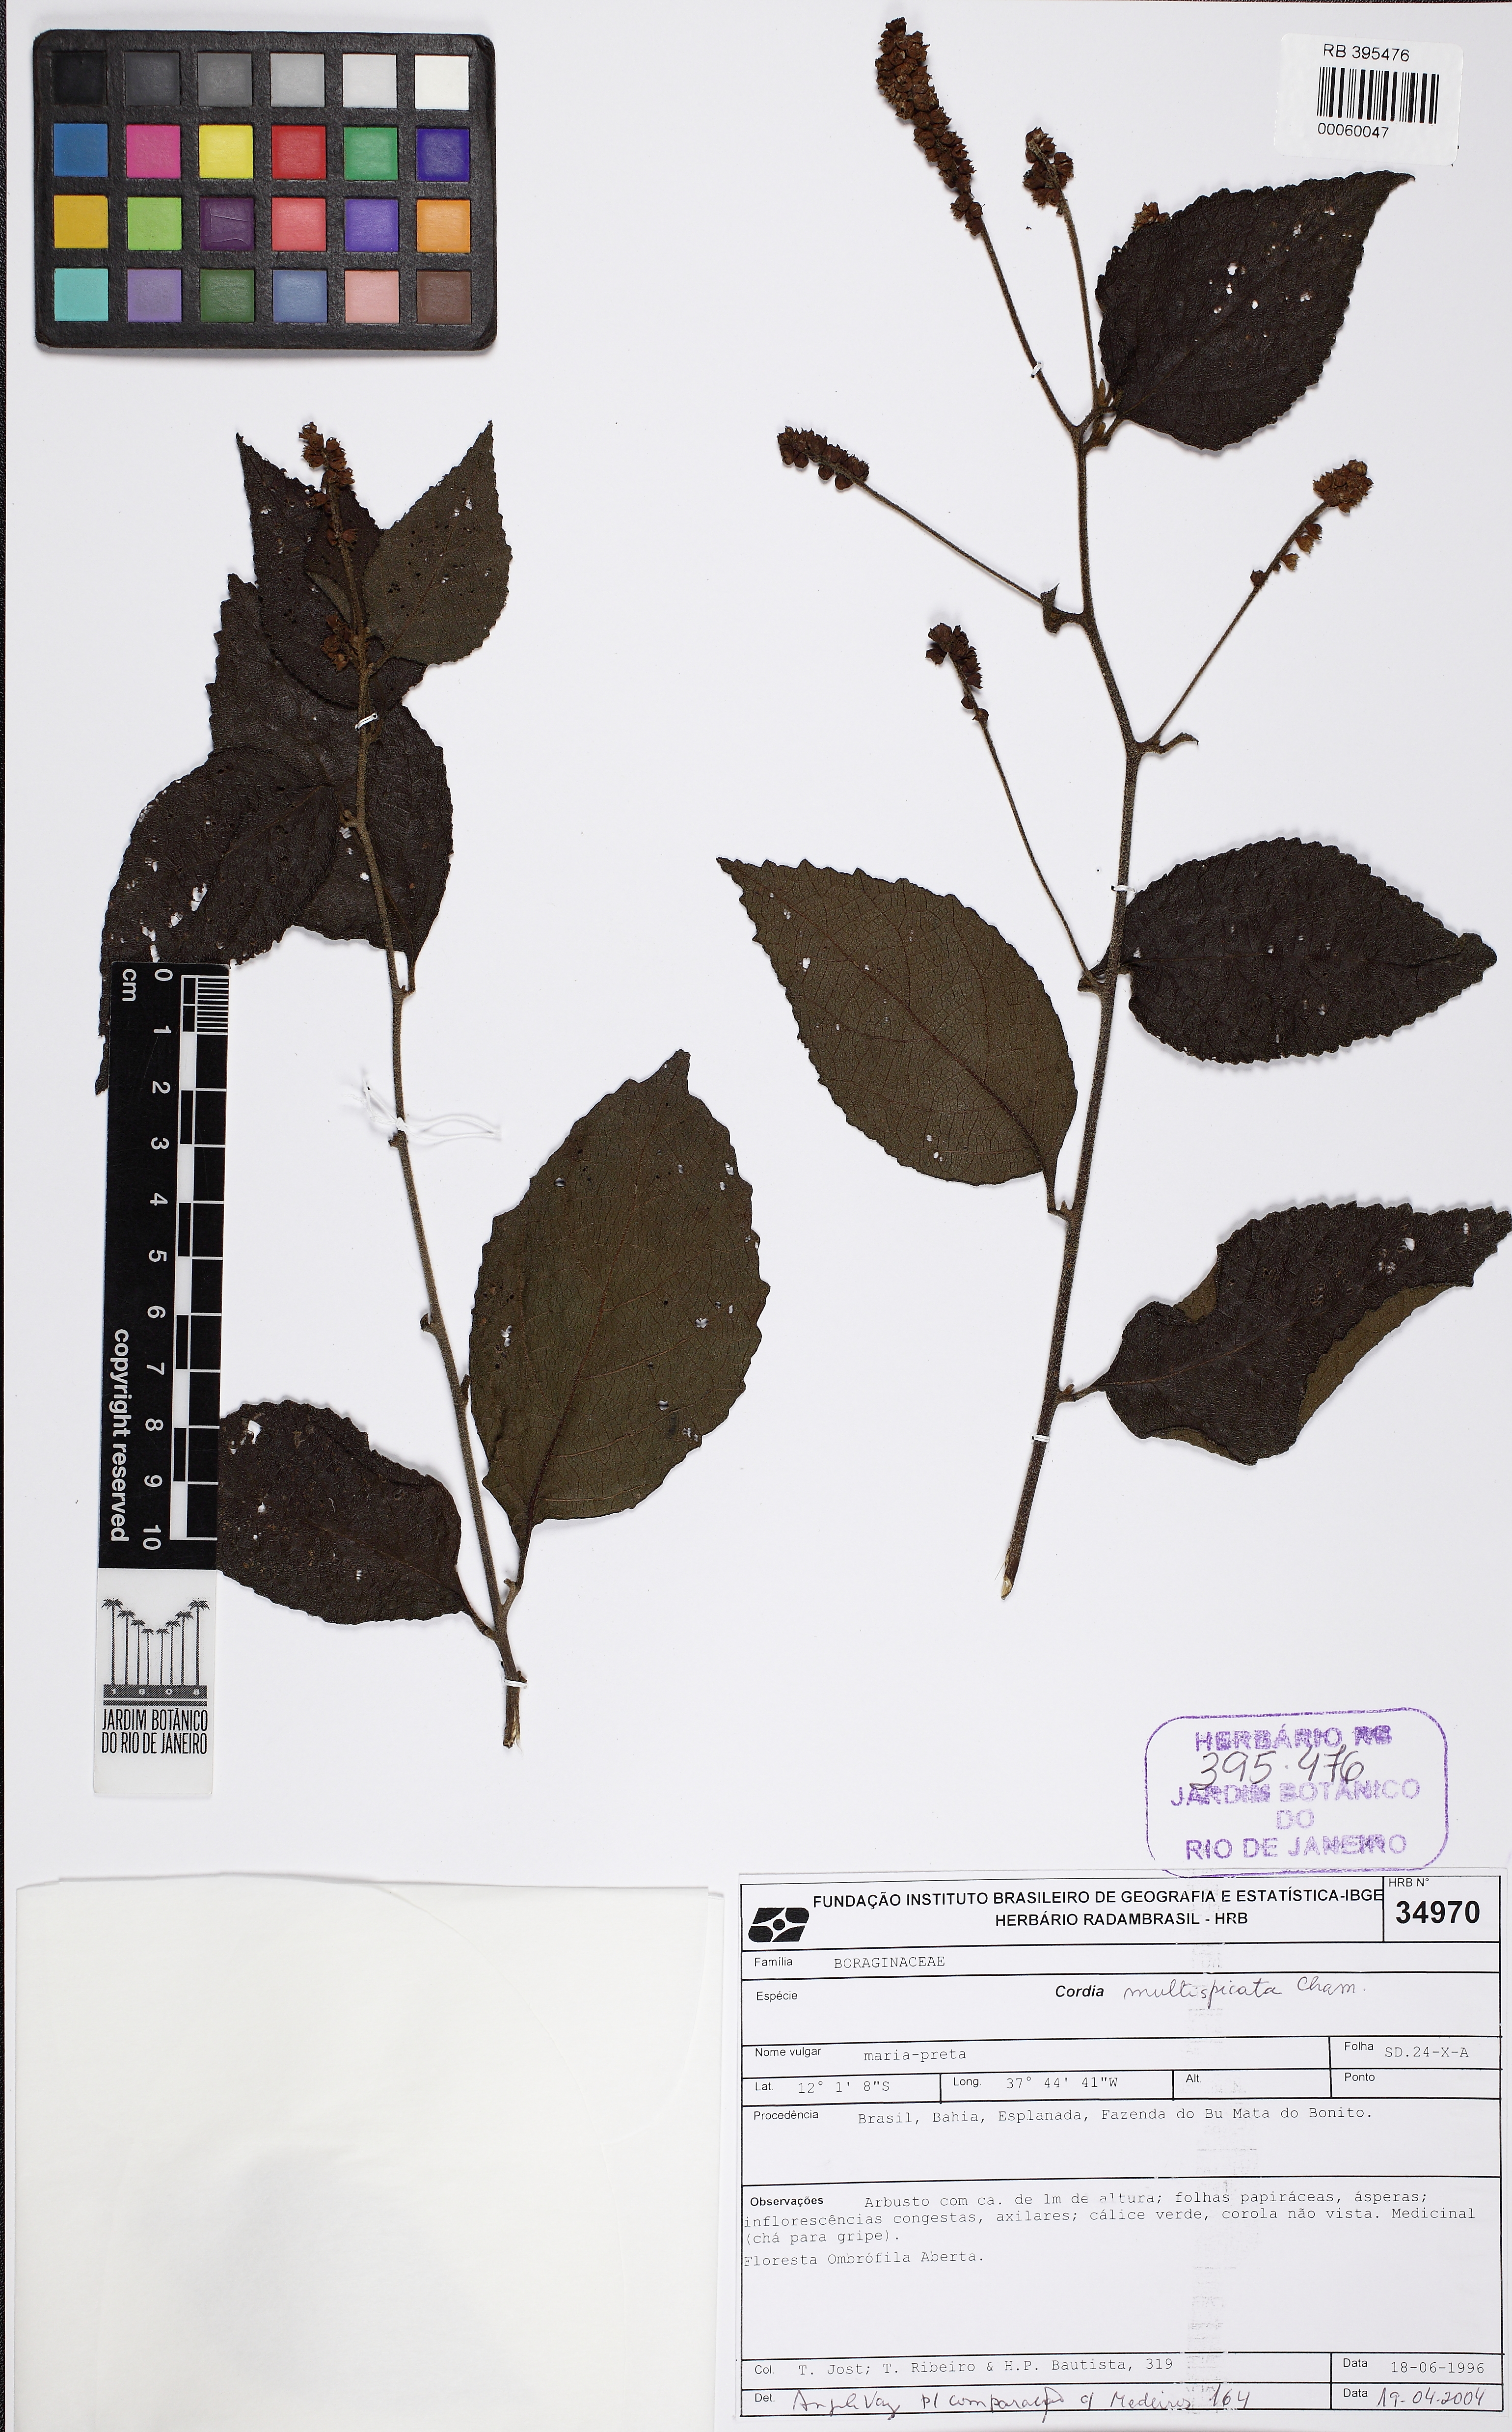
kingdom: Plantae
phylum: Tracheophyta
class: Magnoliopsida
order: Boraginales
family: Cordiaceae
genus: Varronia
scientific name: Varronia multispicata
